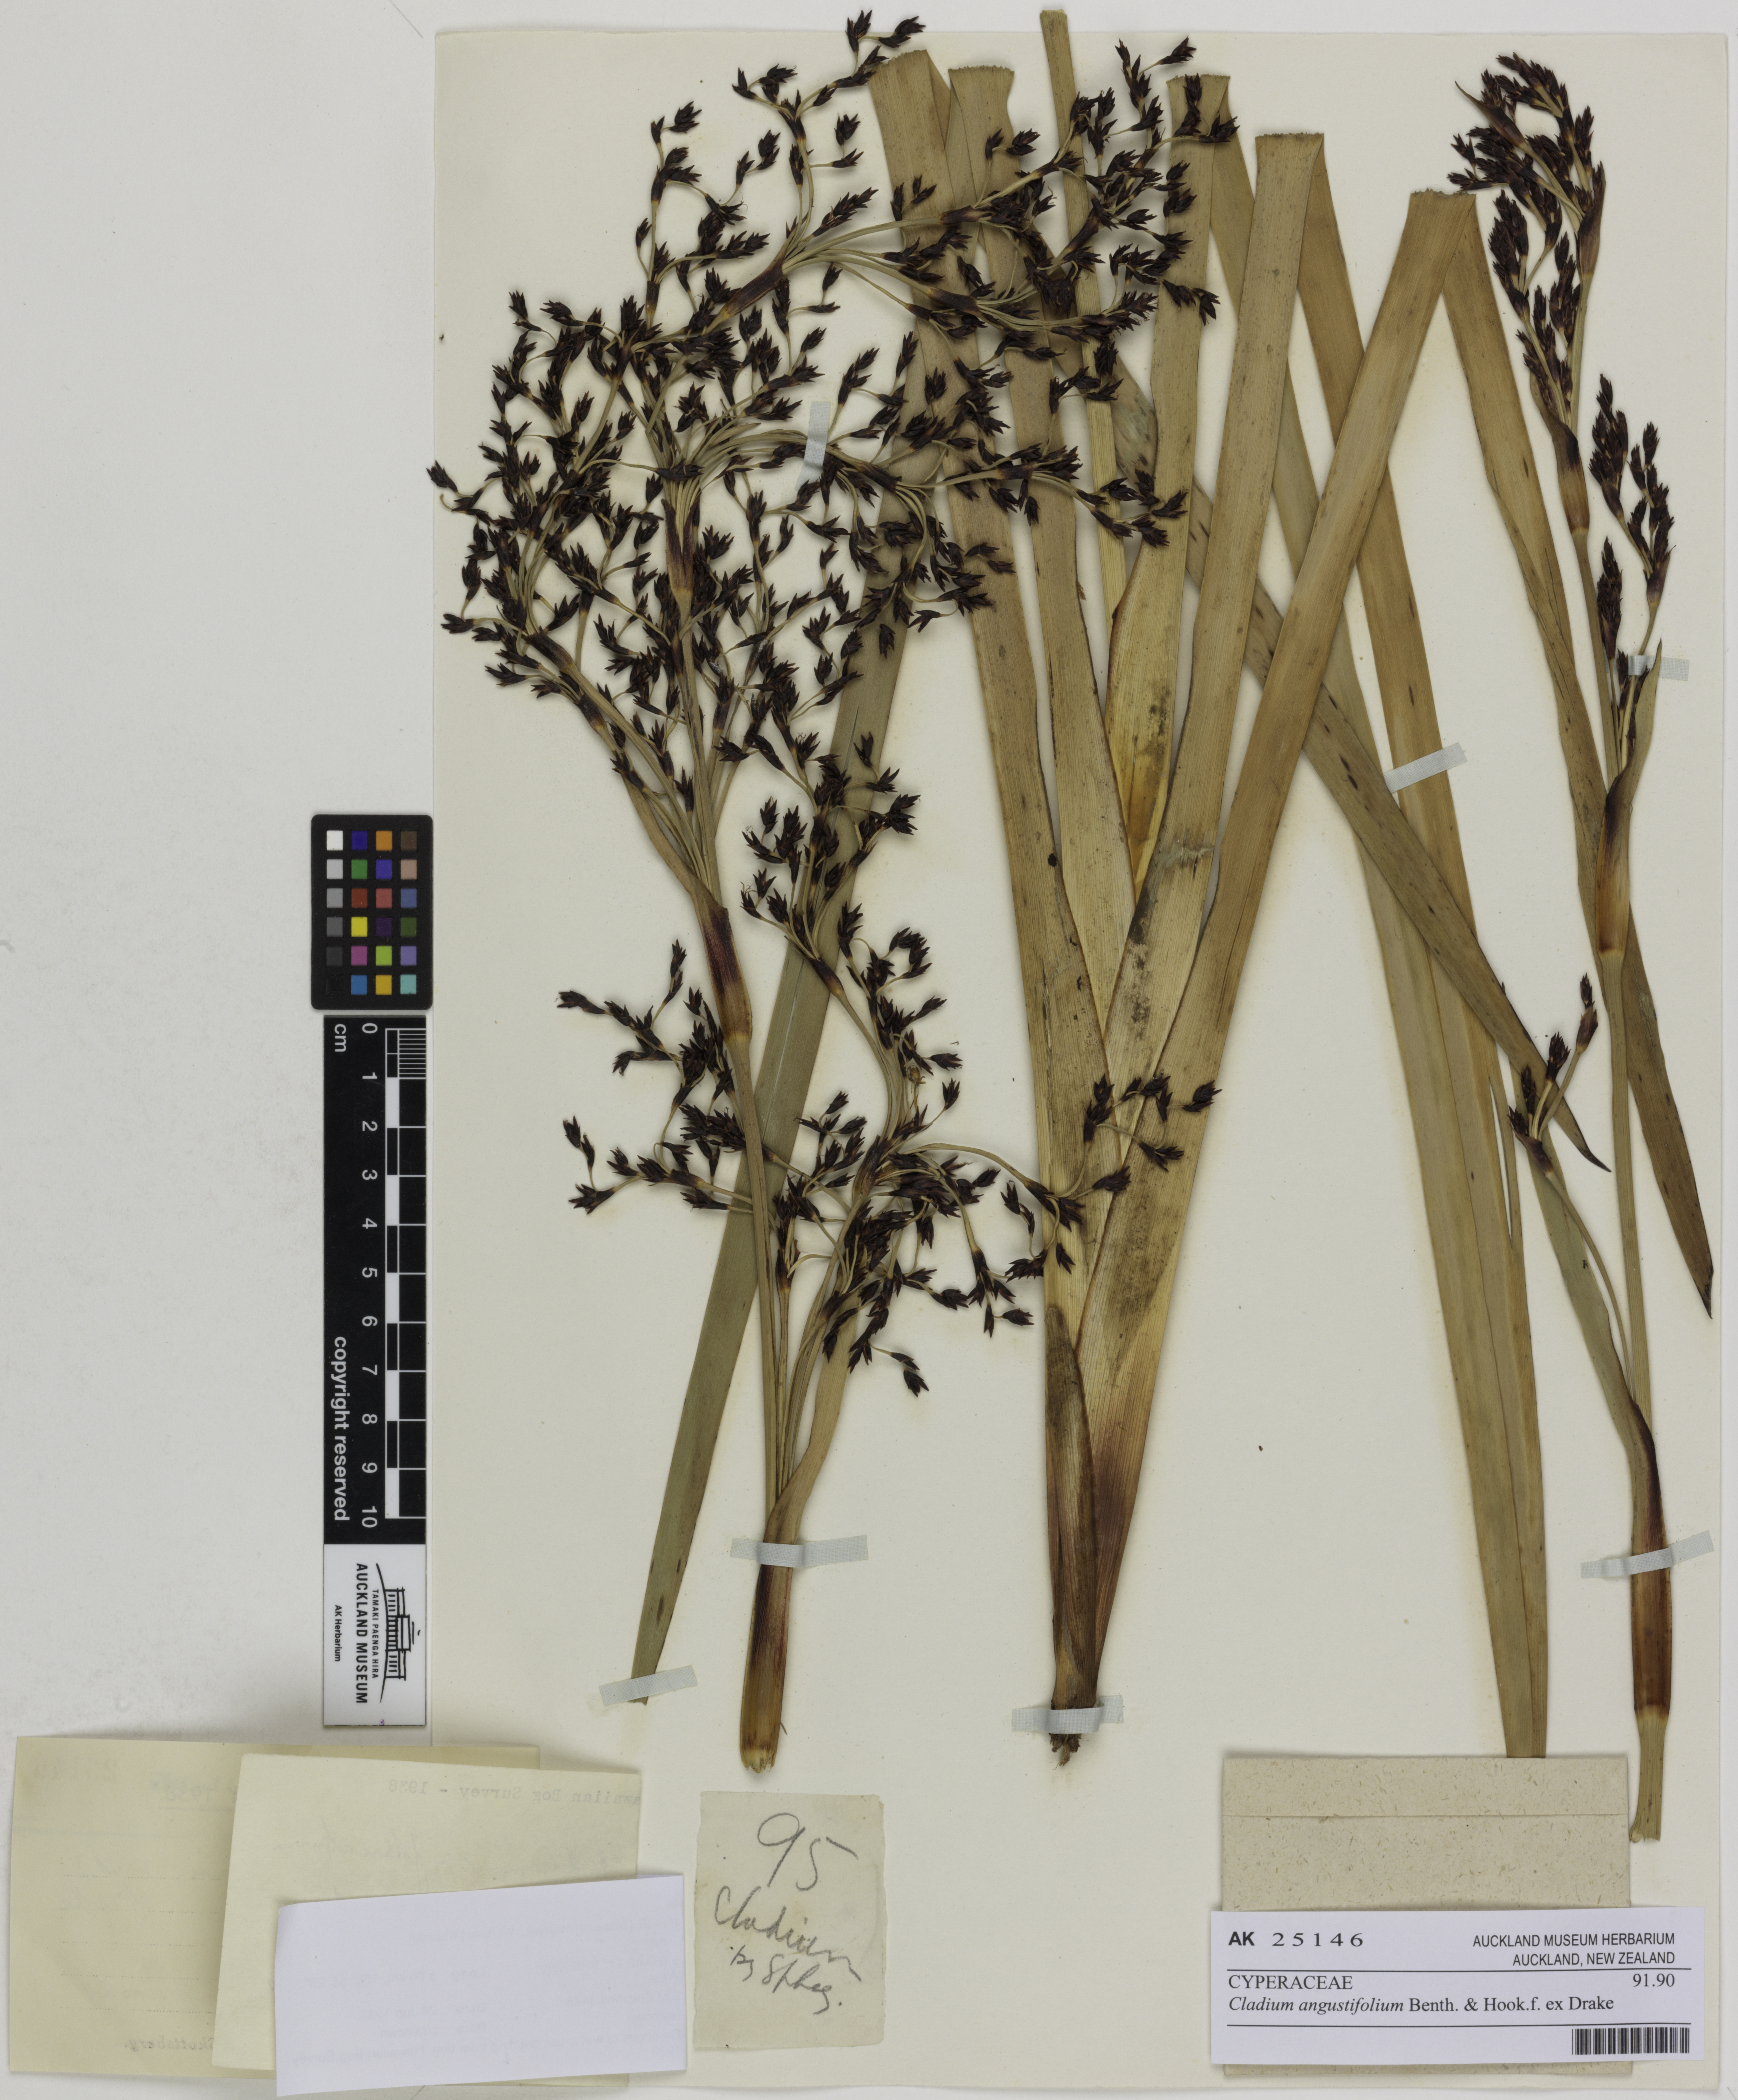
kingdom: Plantae
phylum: Tracheophyta
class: Liliopsida
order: Poales
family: Cyperaceae
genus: Machaerina
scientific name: Machaerina angustifolia
